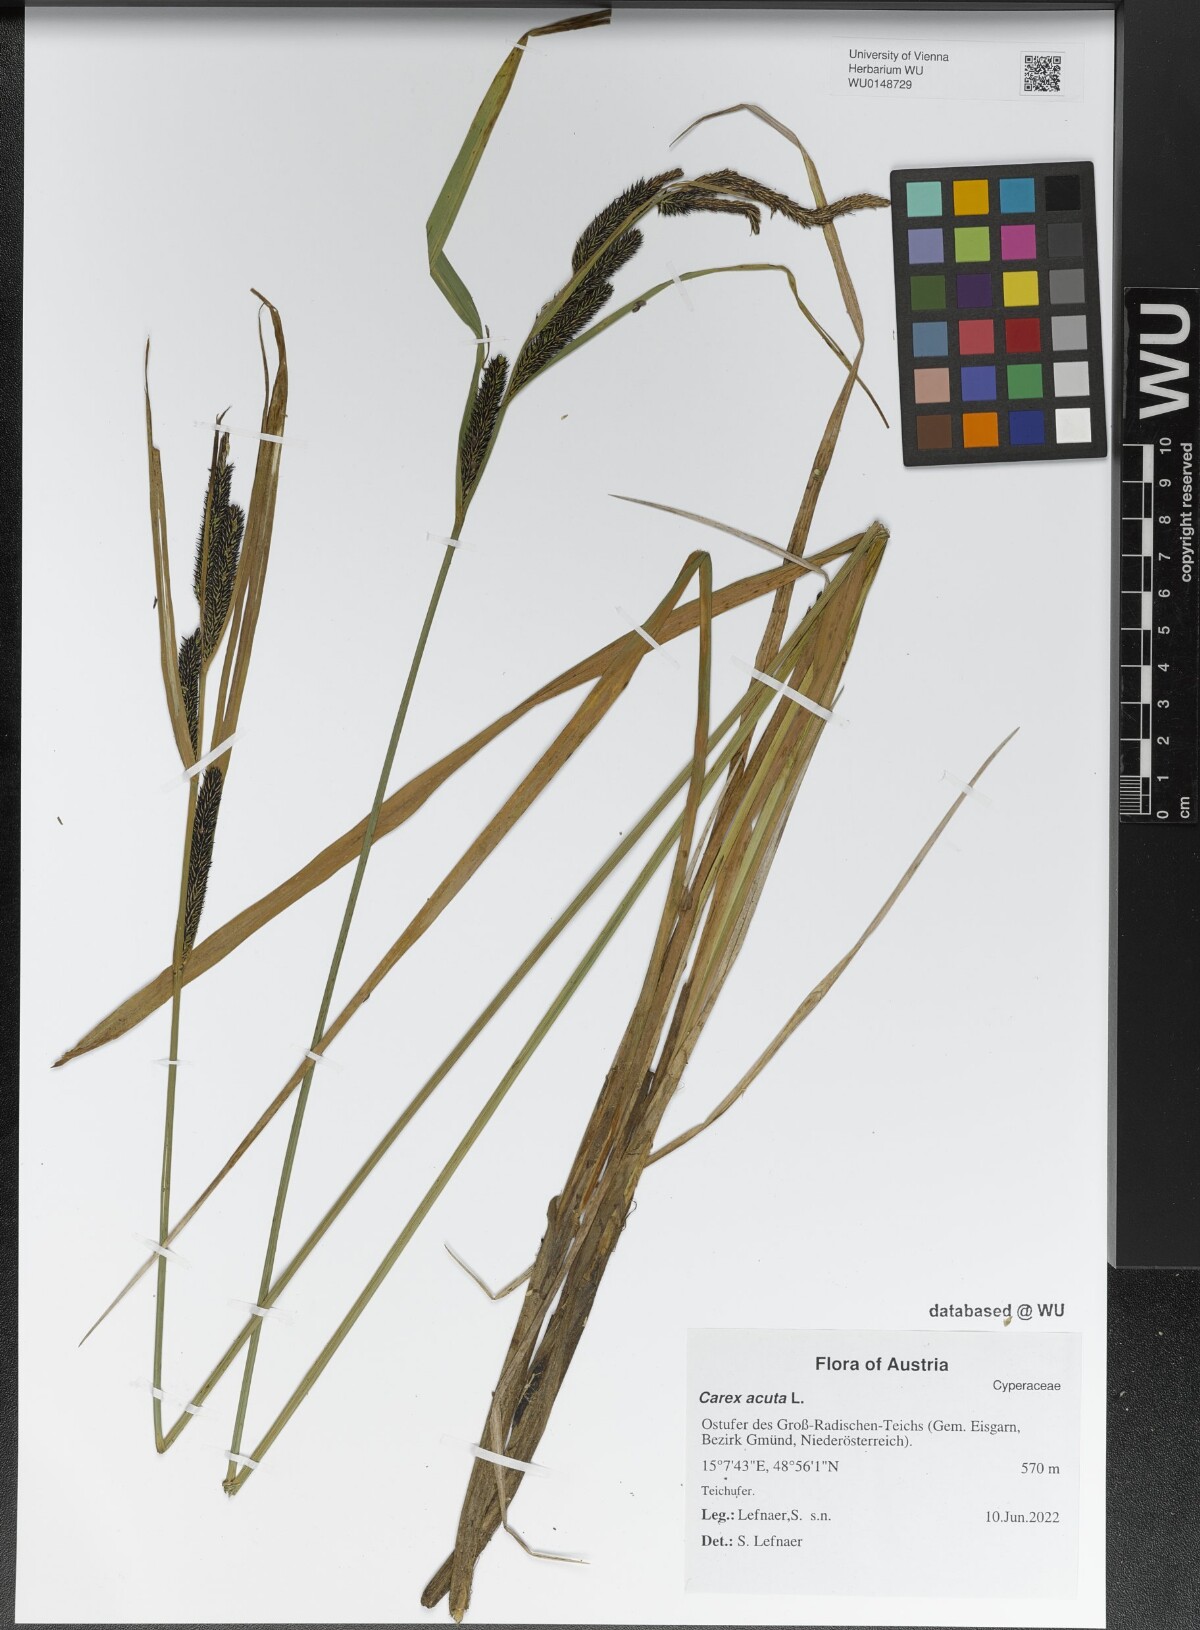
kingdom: Plantae
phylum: Tracheophyta
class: Liliopsida
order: Poales
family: Cyperaceae
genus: Carex
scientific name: Carex acuta
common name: Slender tufted-sedge
